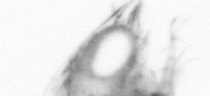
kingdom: Animalia
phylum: Arthropoda
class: Copepoda
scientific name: Copepoda
